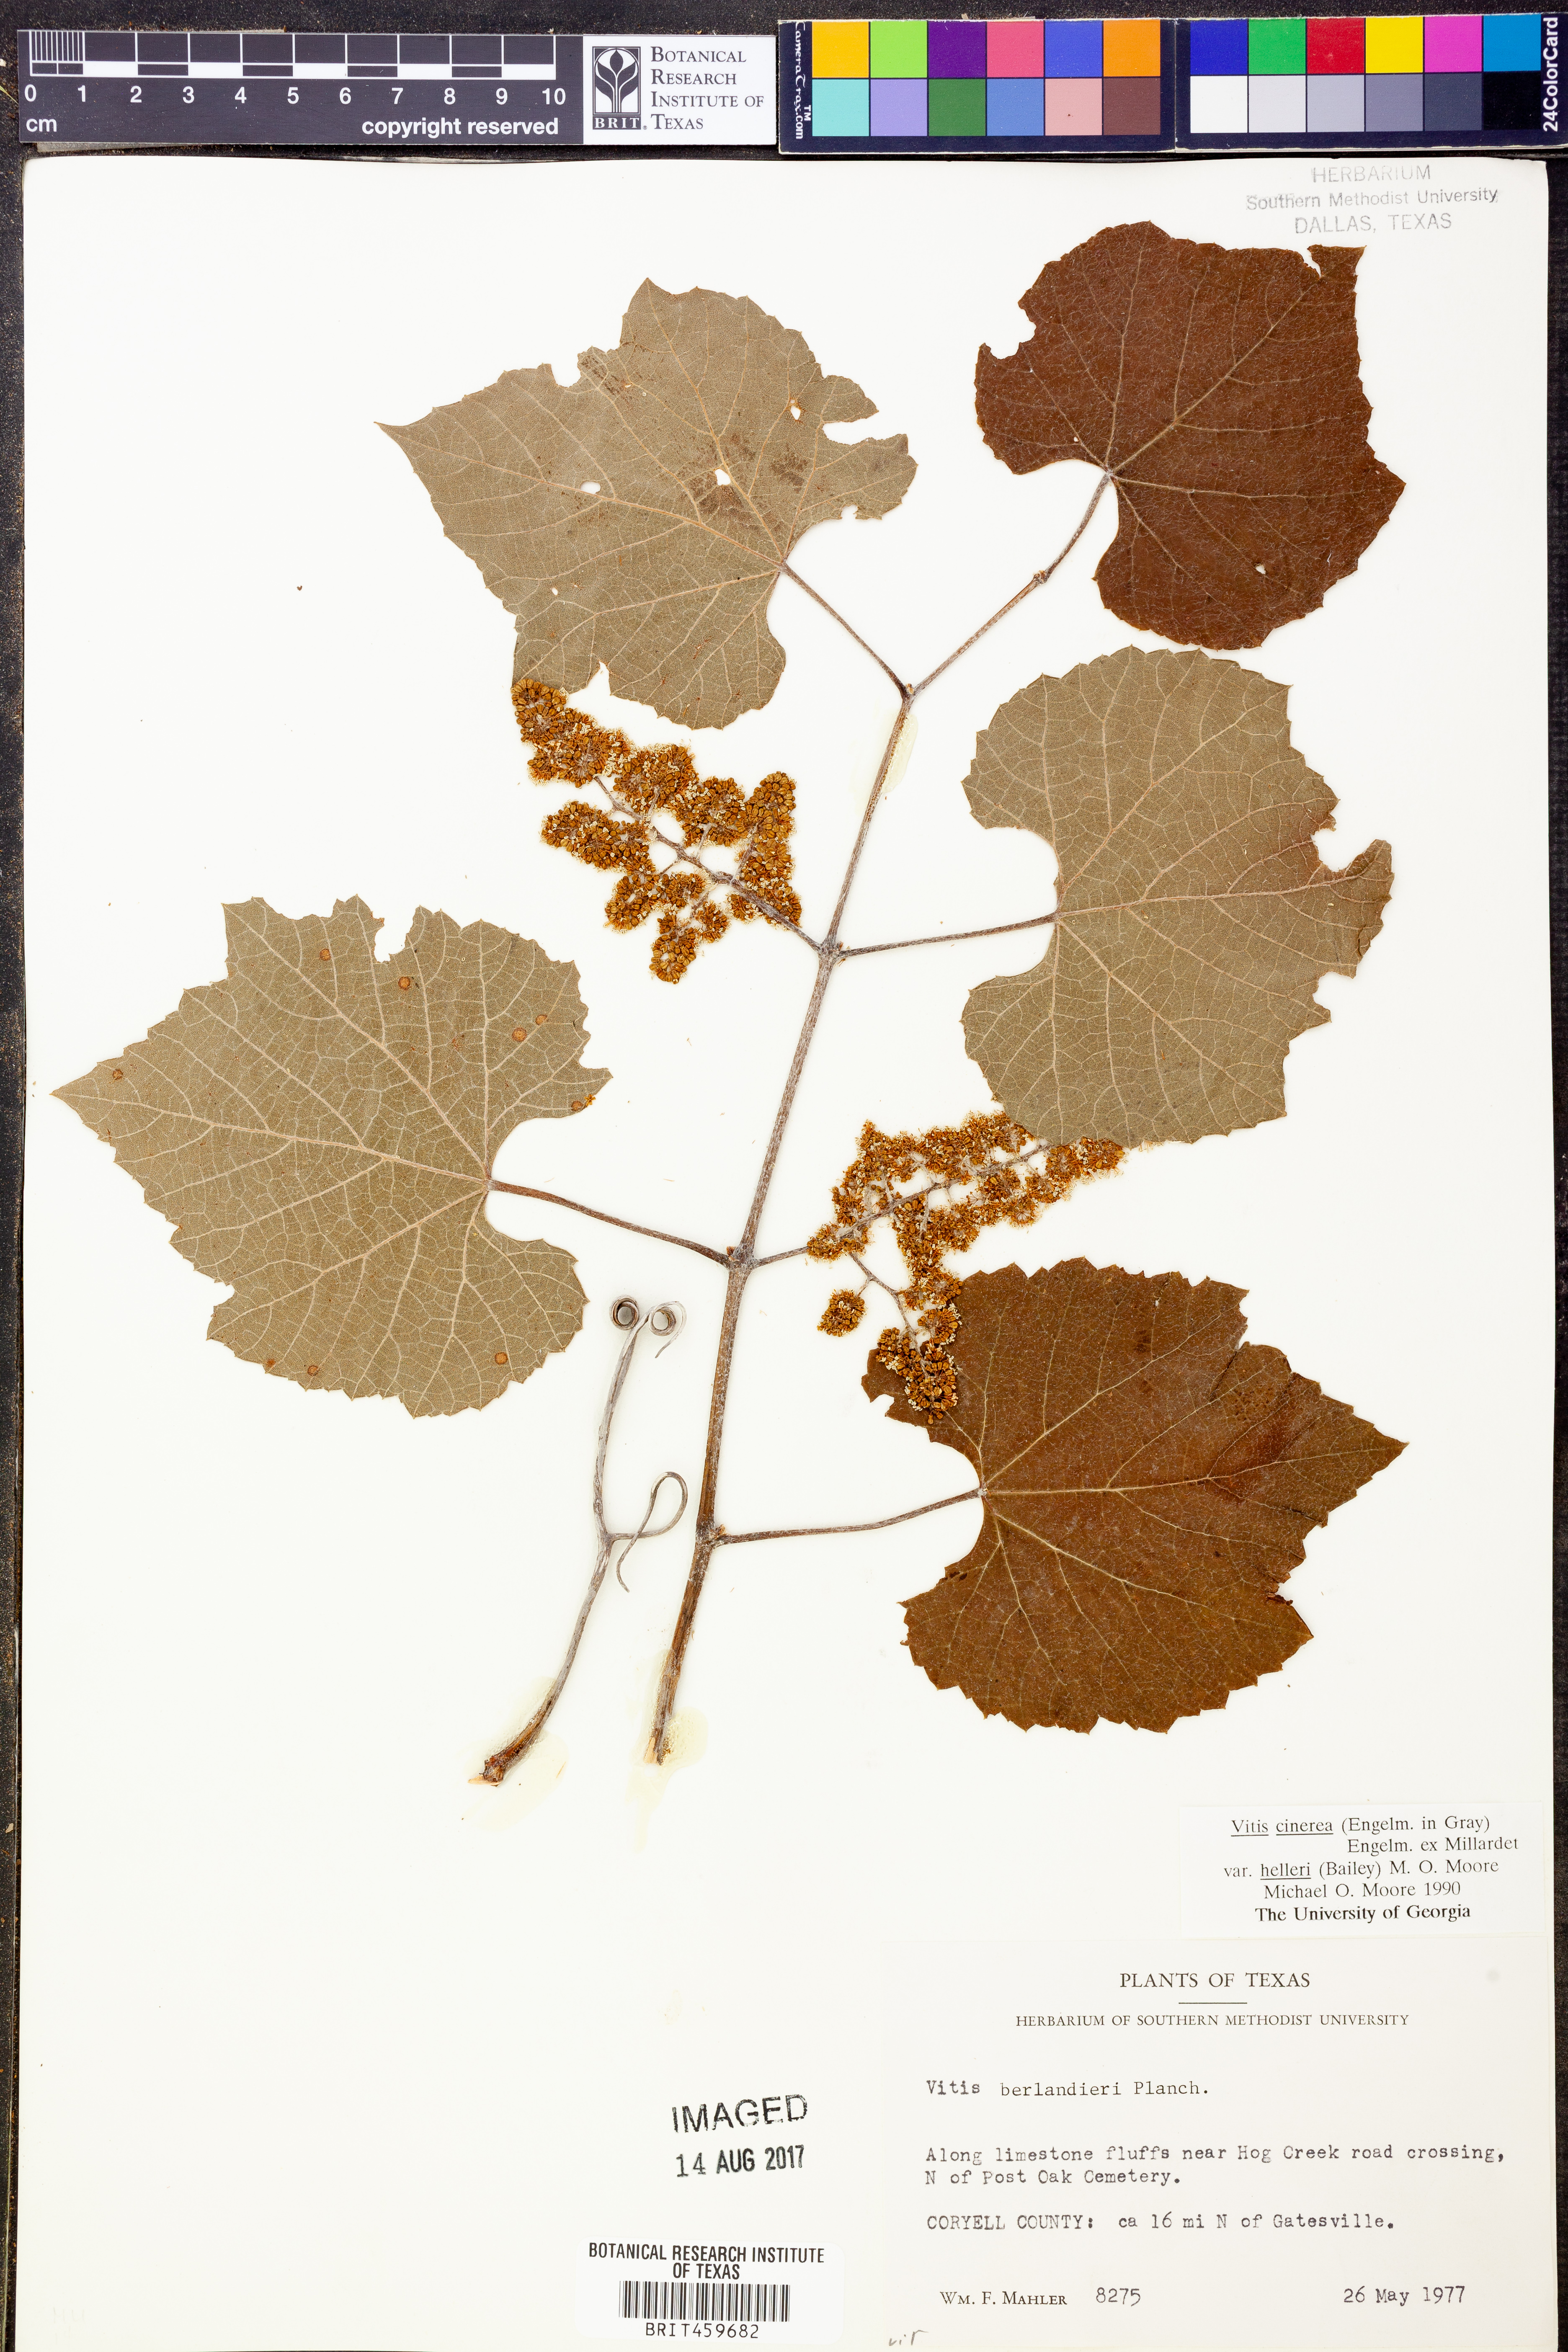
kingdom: Plantae
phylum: Tracheophyta
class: Magnoliopsida
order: Vitales
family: Vitaceae
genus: Vitis
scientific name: Vitis cinerea
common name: Ashy grape
